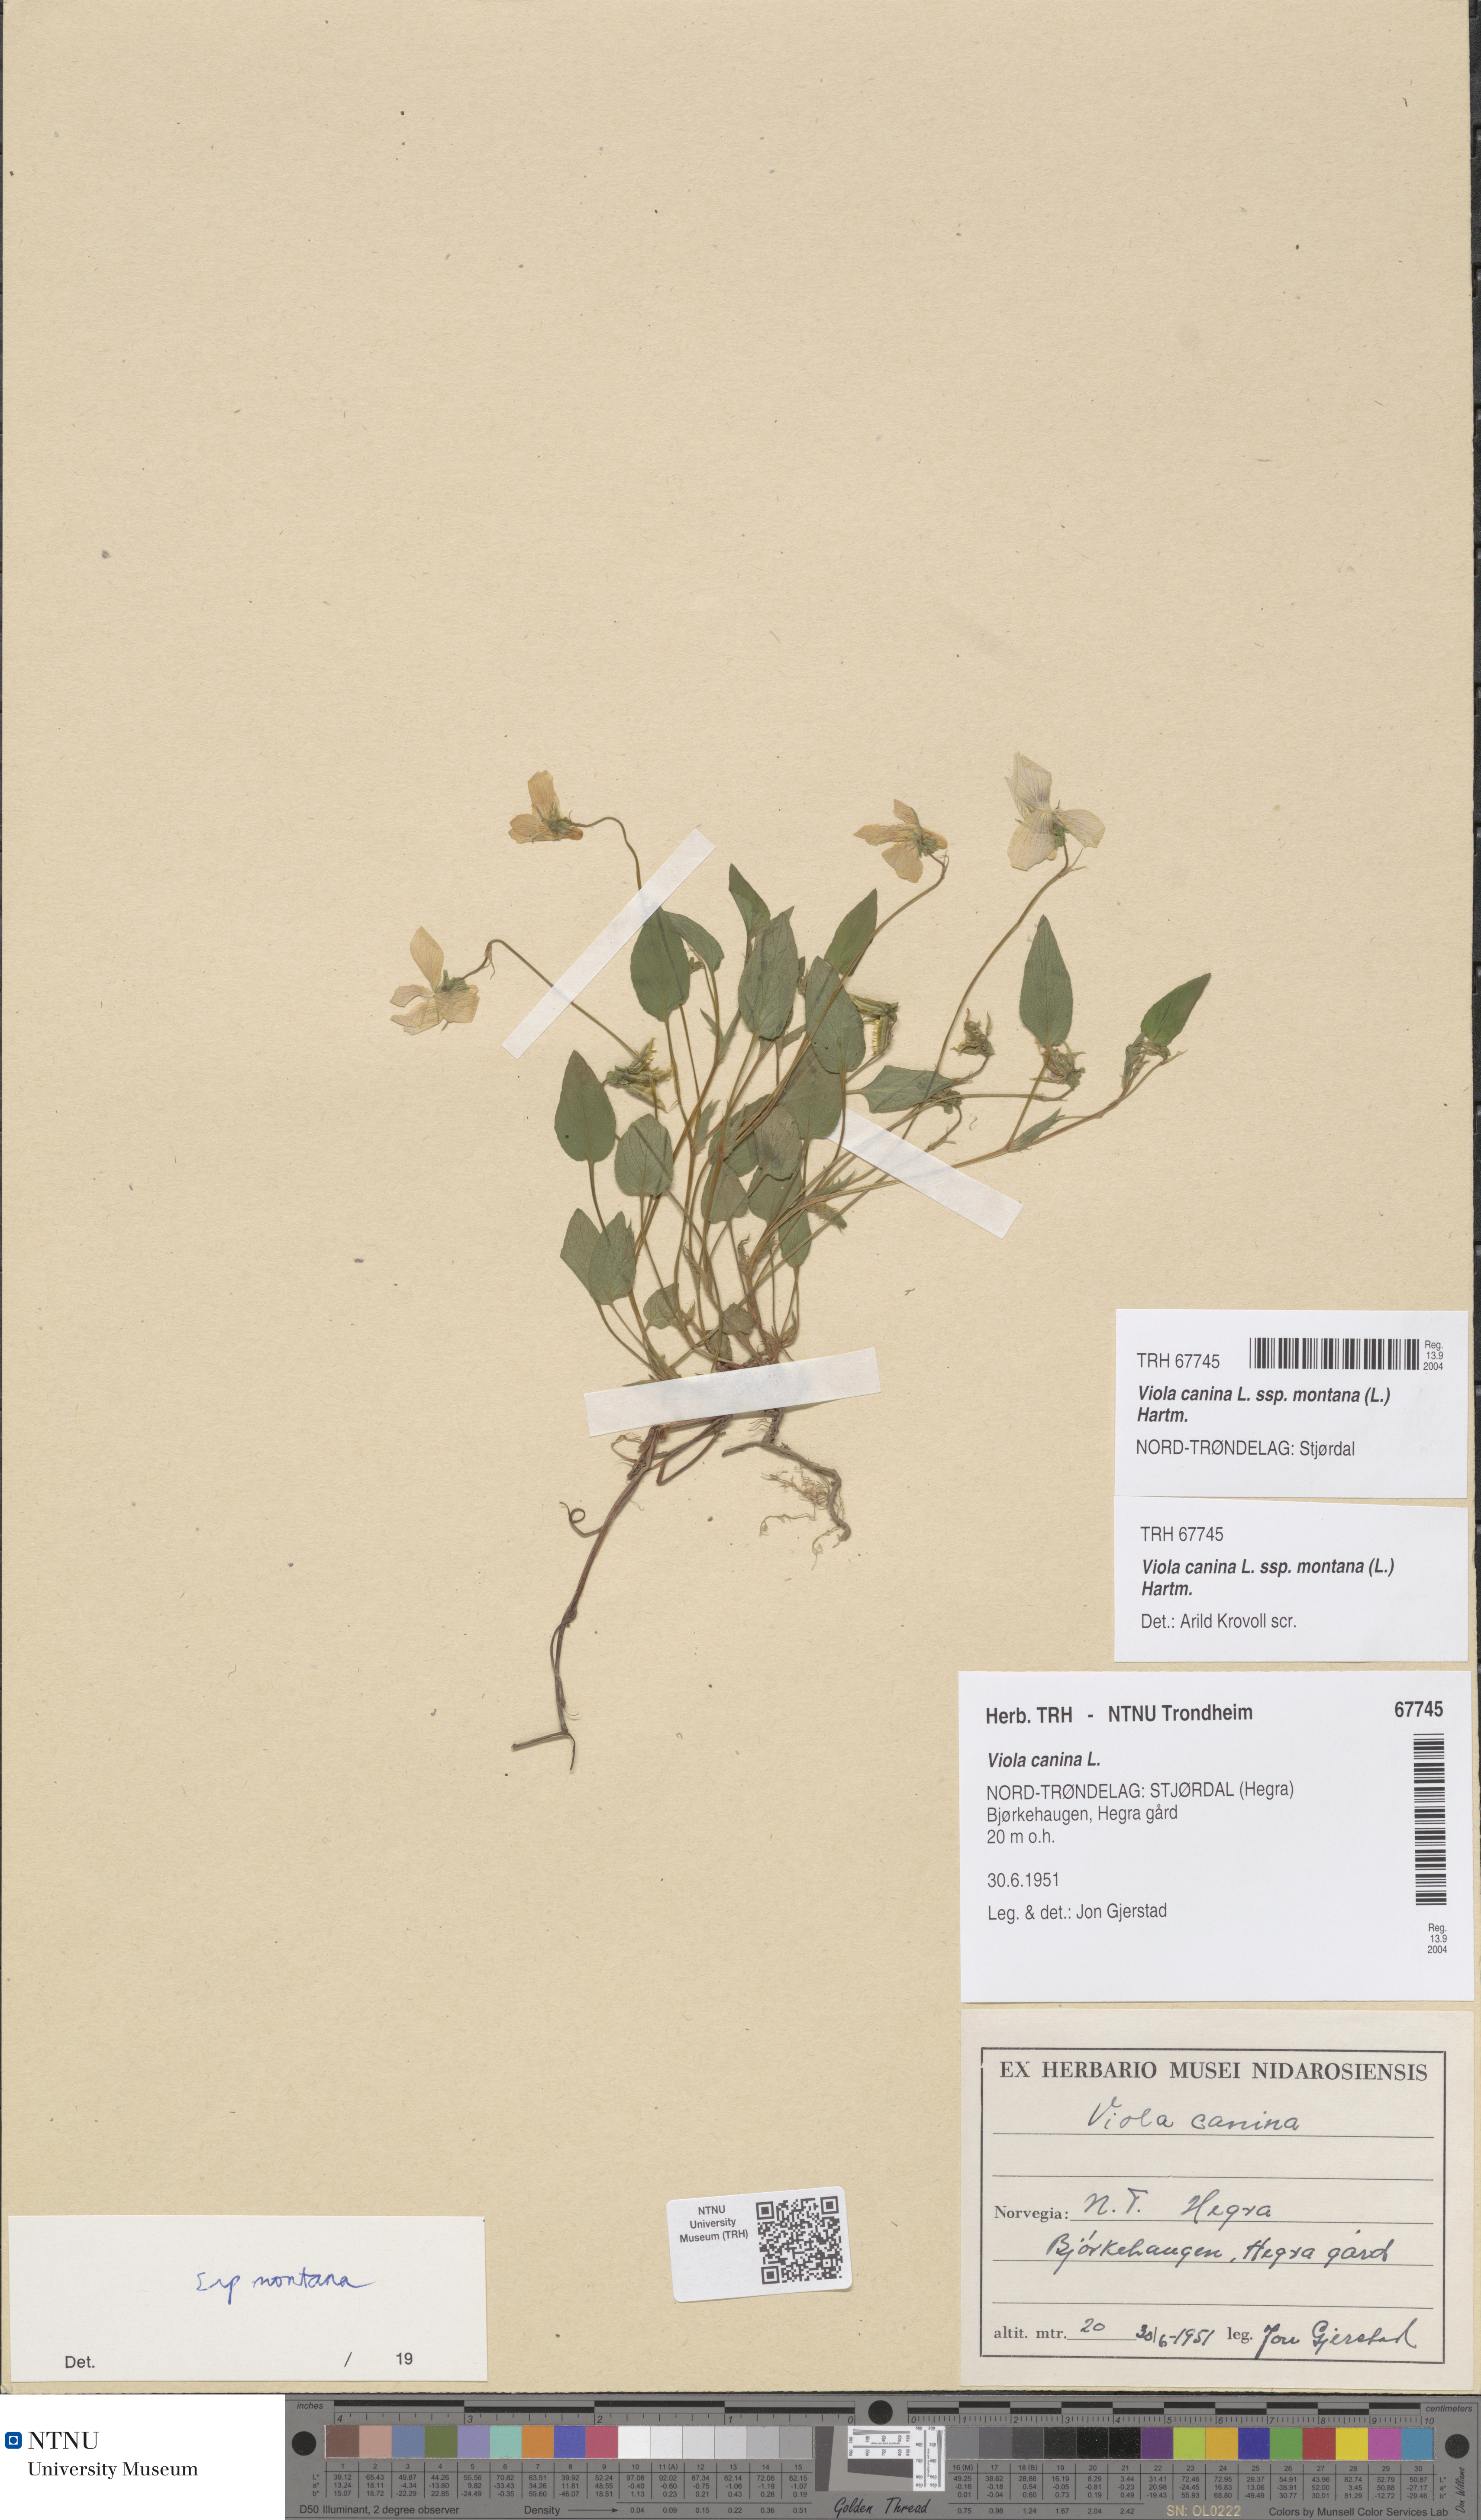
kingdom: Plantae
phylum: Tracheophyta
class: Magnoliopsida
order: Malpighiales
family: Violaceae
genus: Viola
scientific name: Viola ruppii
